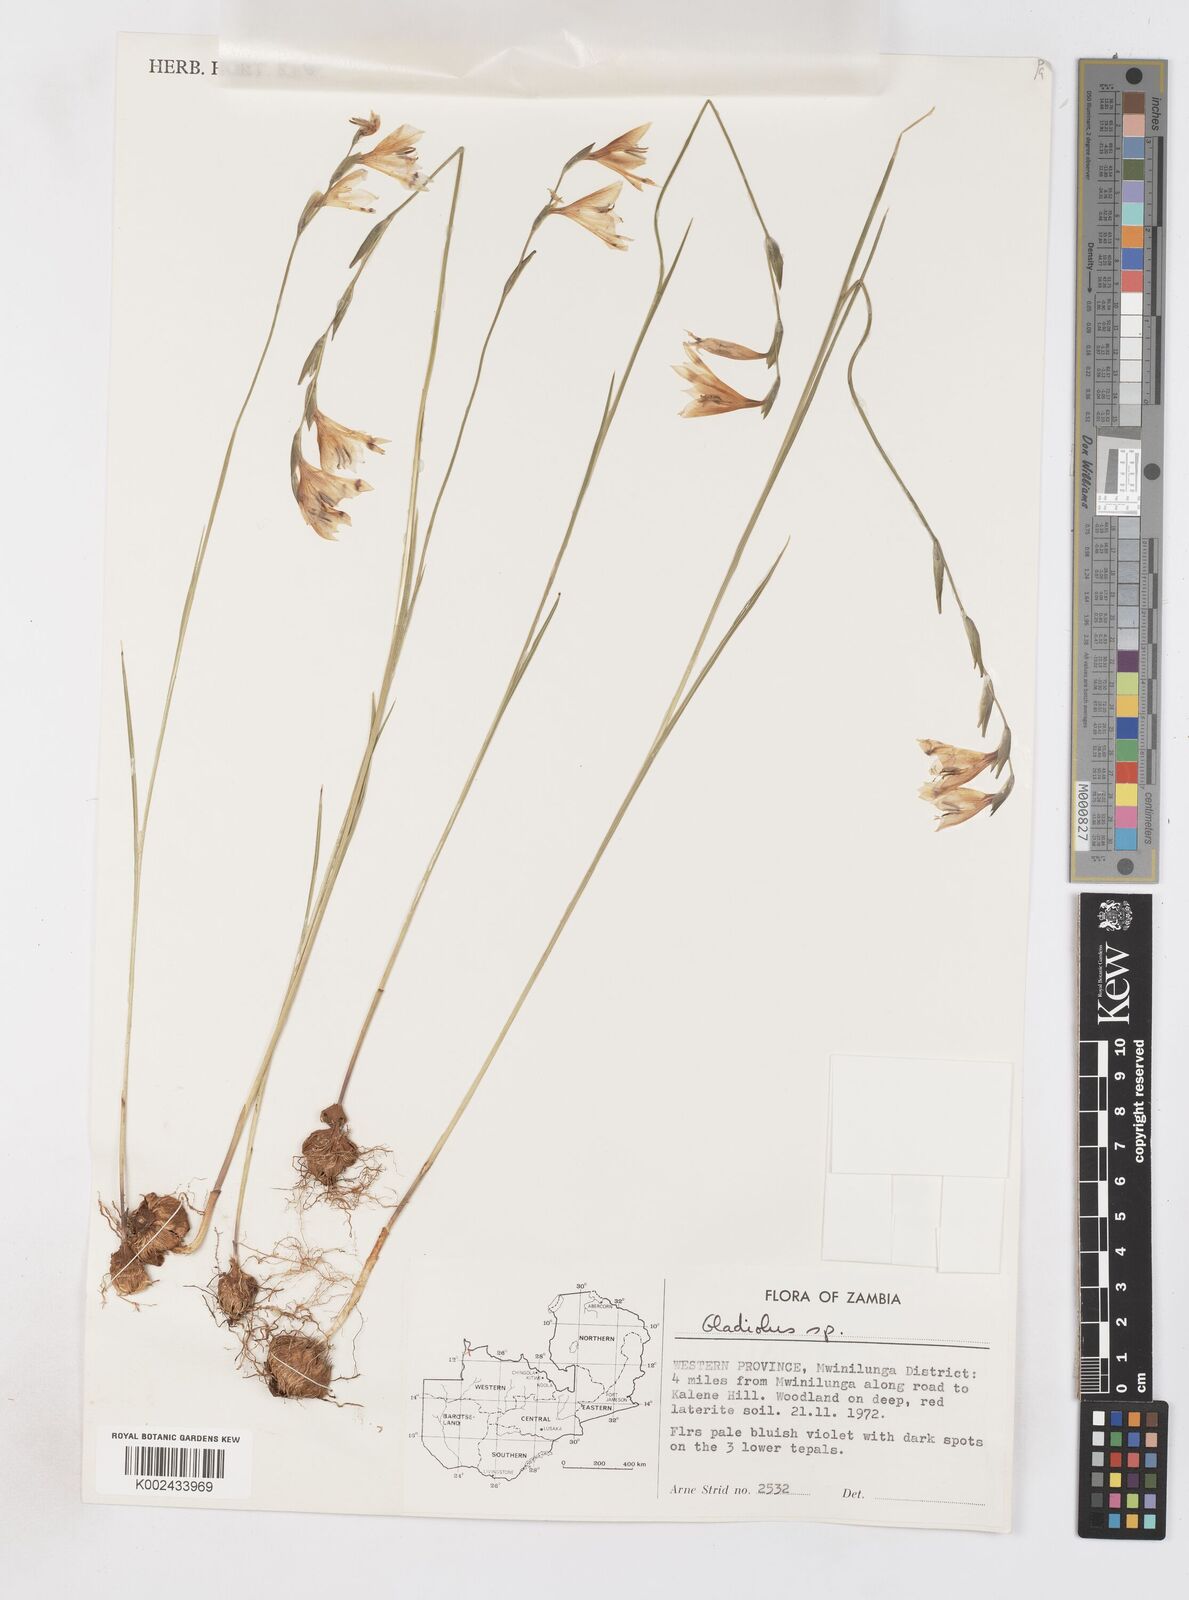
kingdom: Plantae
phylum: Tracheophyta
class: Liliopsida
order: Asparagales
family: Iridaceae
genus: Gladiolus
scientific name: Gladiolus atropurpureus
